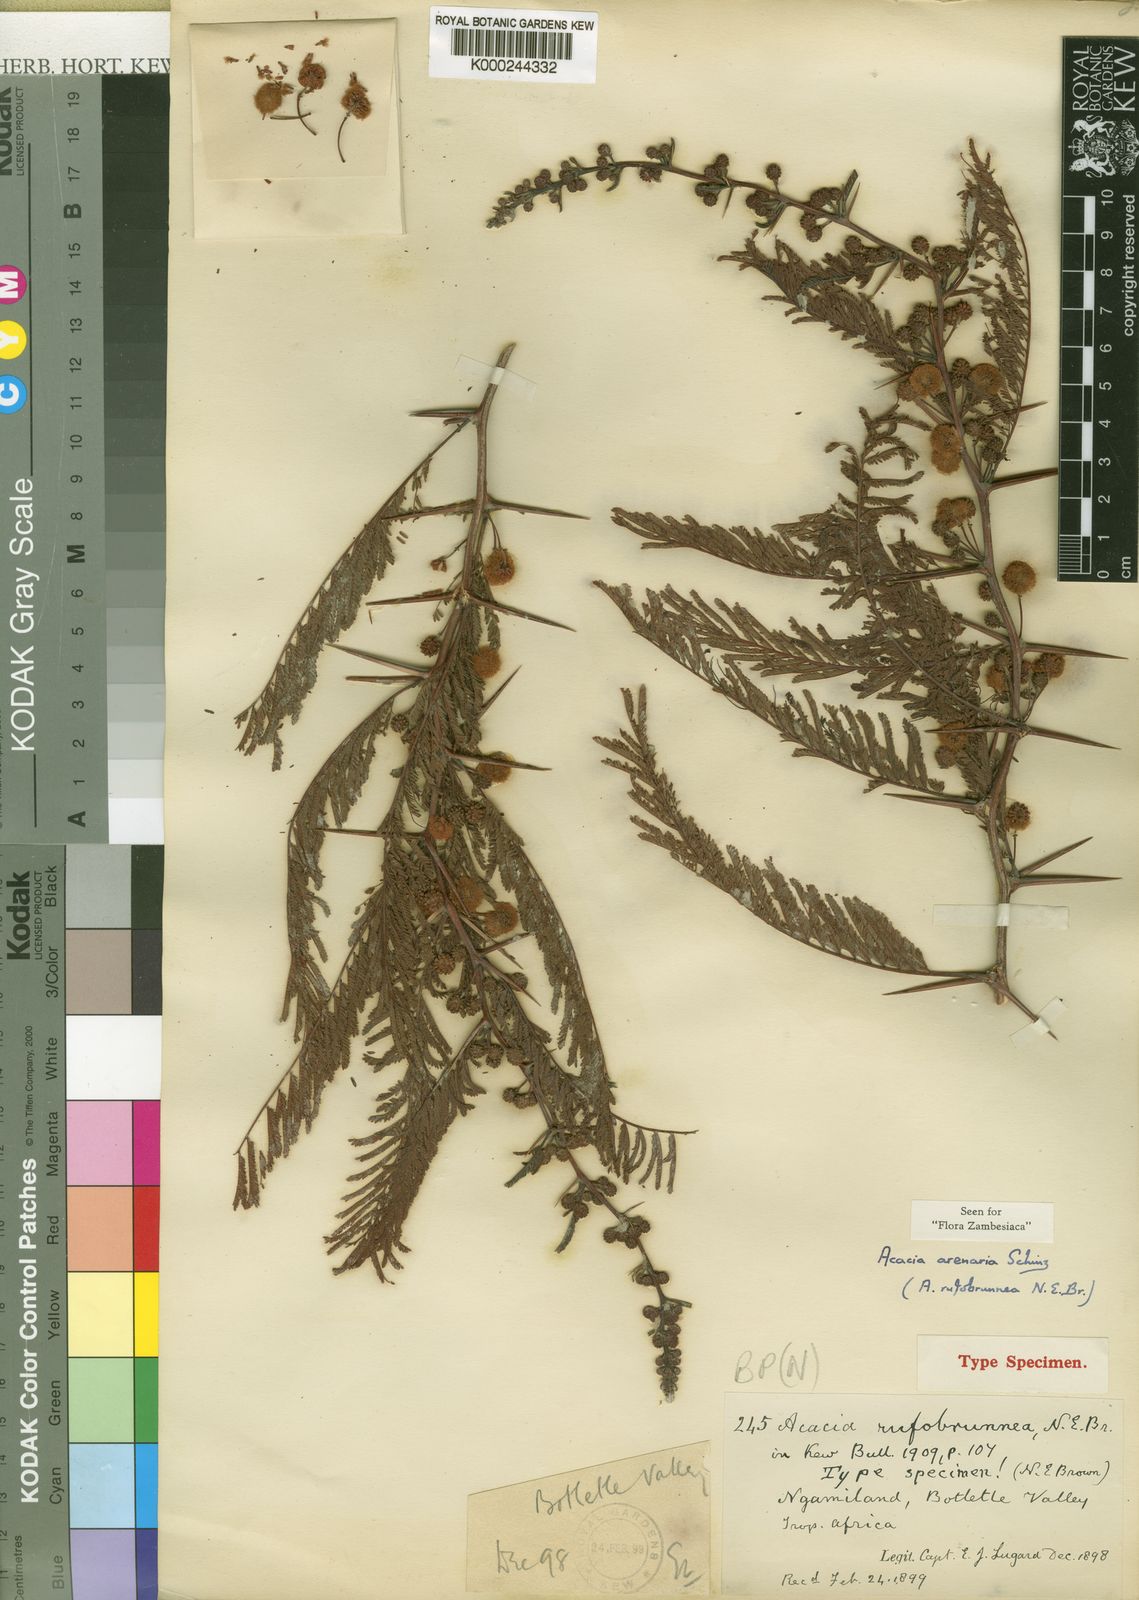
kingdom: Plantae
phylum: Tracheophyta
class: Magnoliopsida
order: Fabales
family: Fabaceae
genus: Vachellia
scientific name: Vachellia arenaria
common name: Sand acacia
